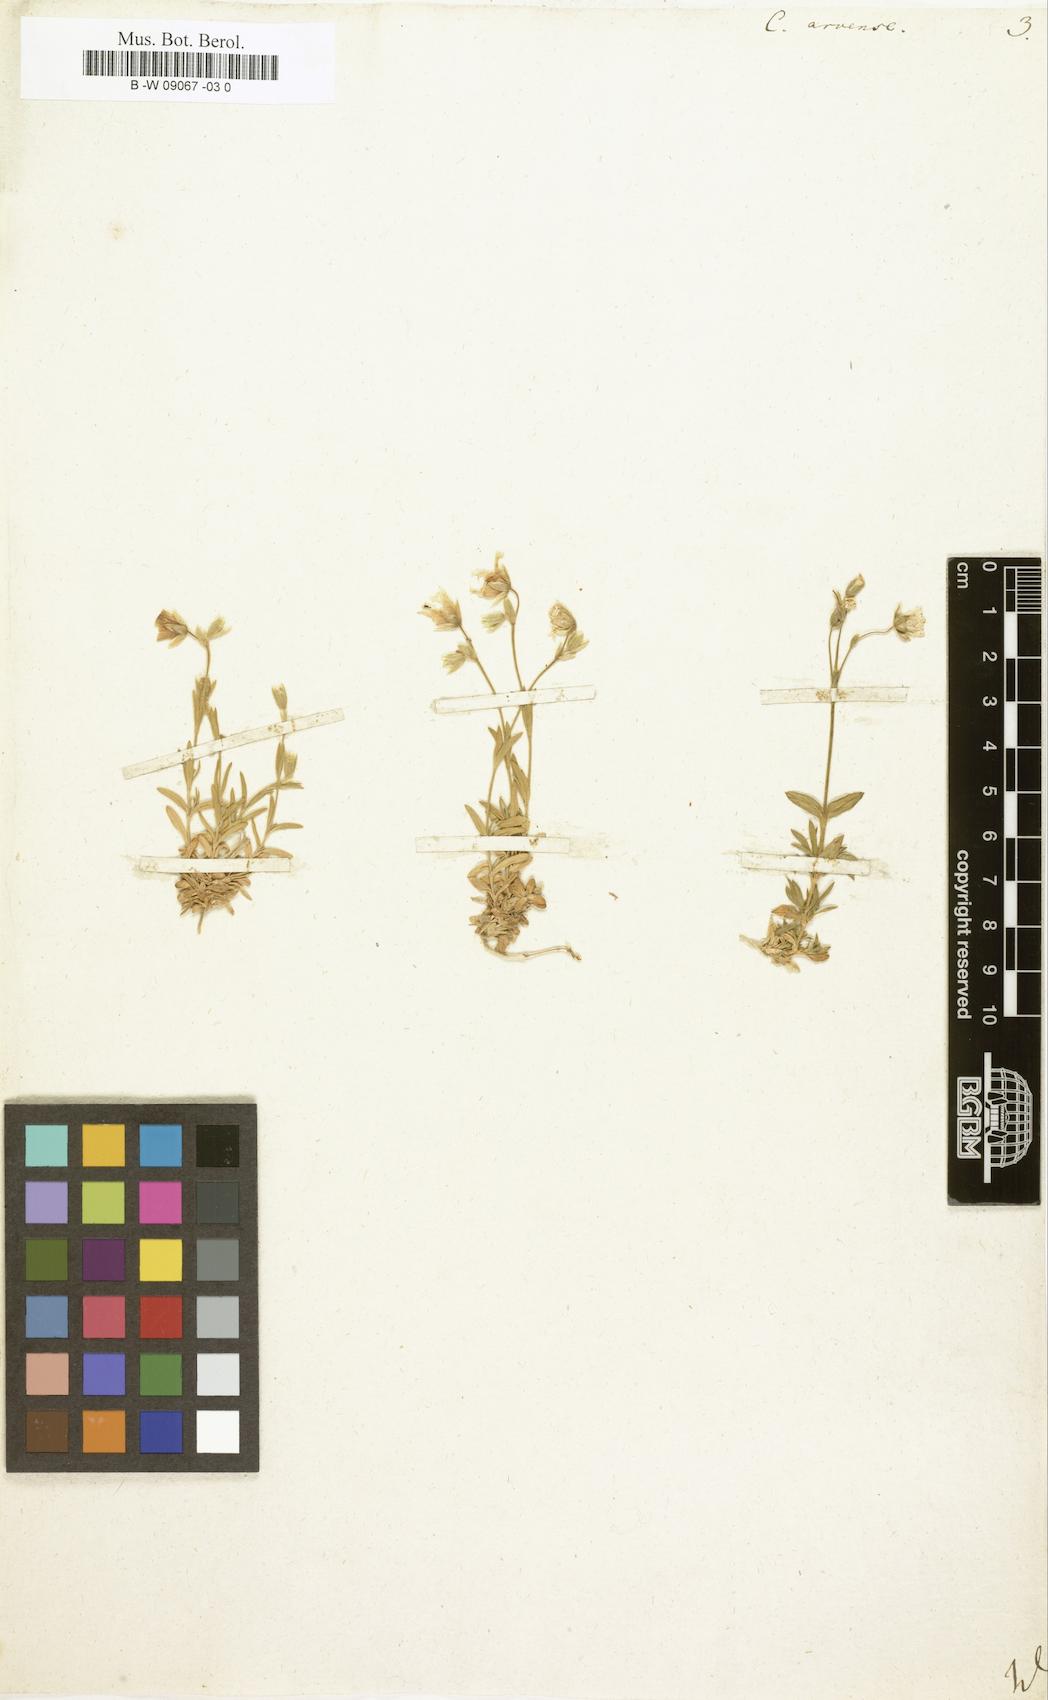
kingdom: Plantae
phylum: Tracheophyta
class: Magnoliopsida
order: Caryophyllales
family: Caryophyllaceae
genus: Cerastium
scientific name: Cerastium arvense
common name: Field mouse-ear
